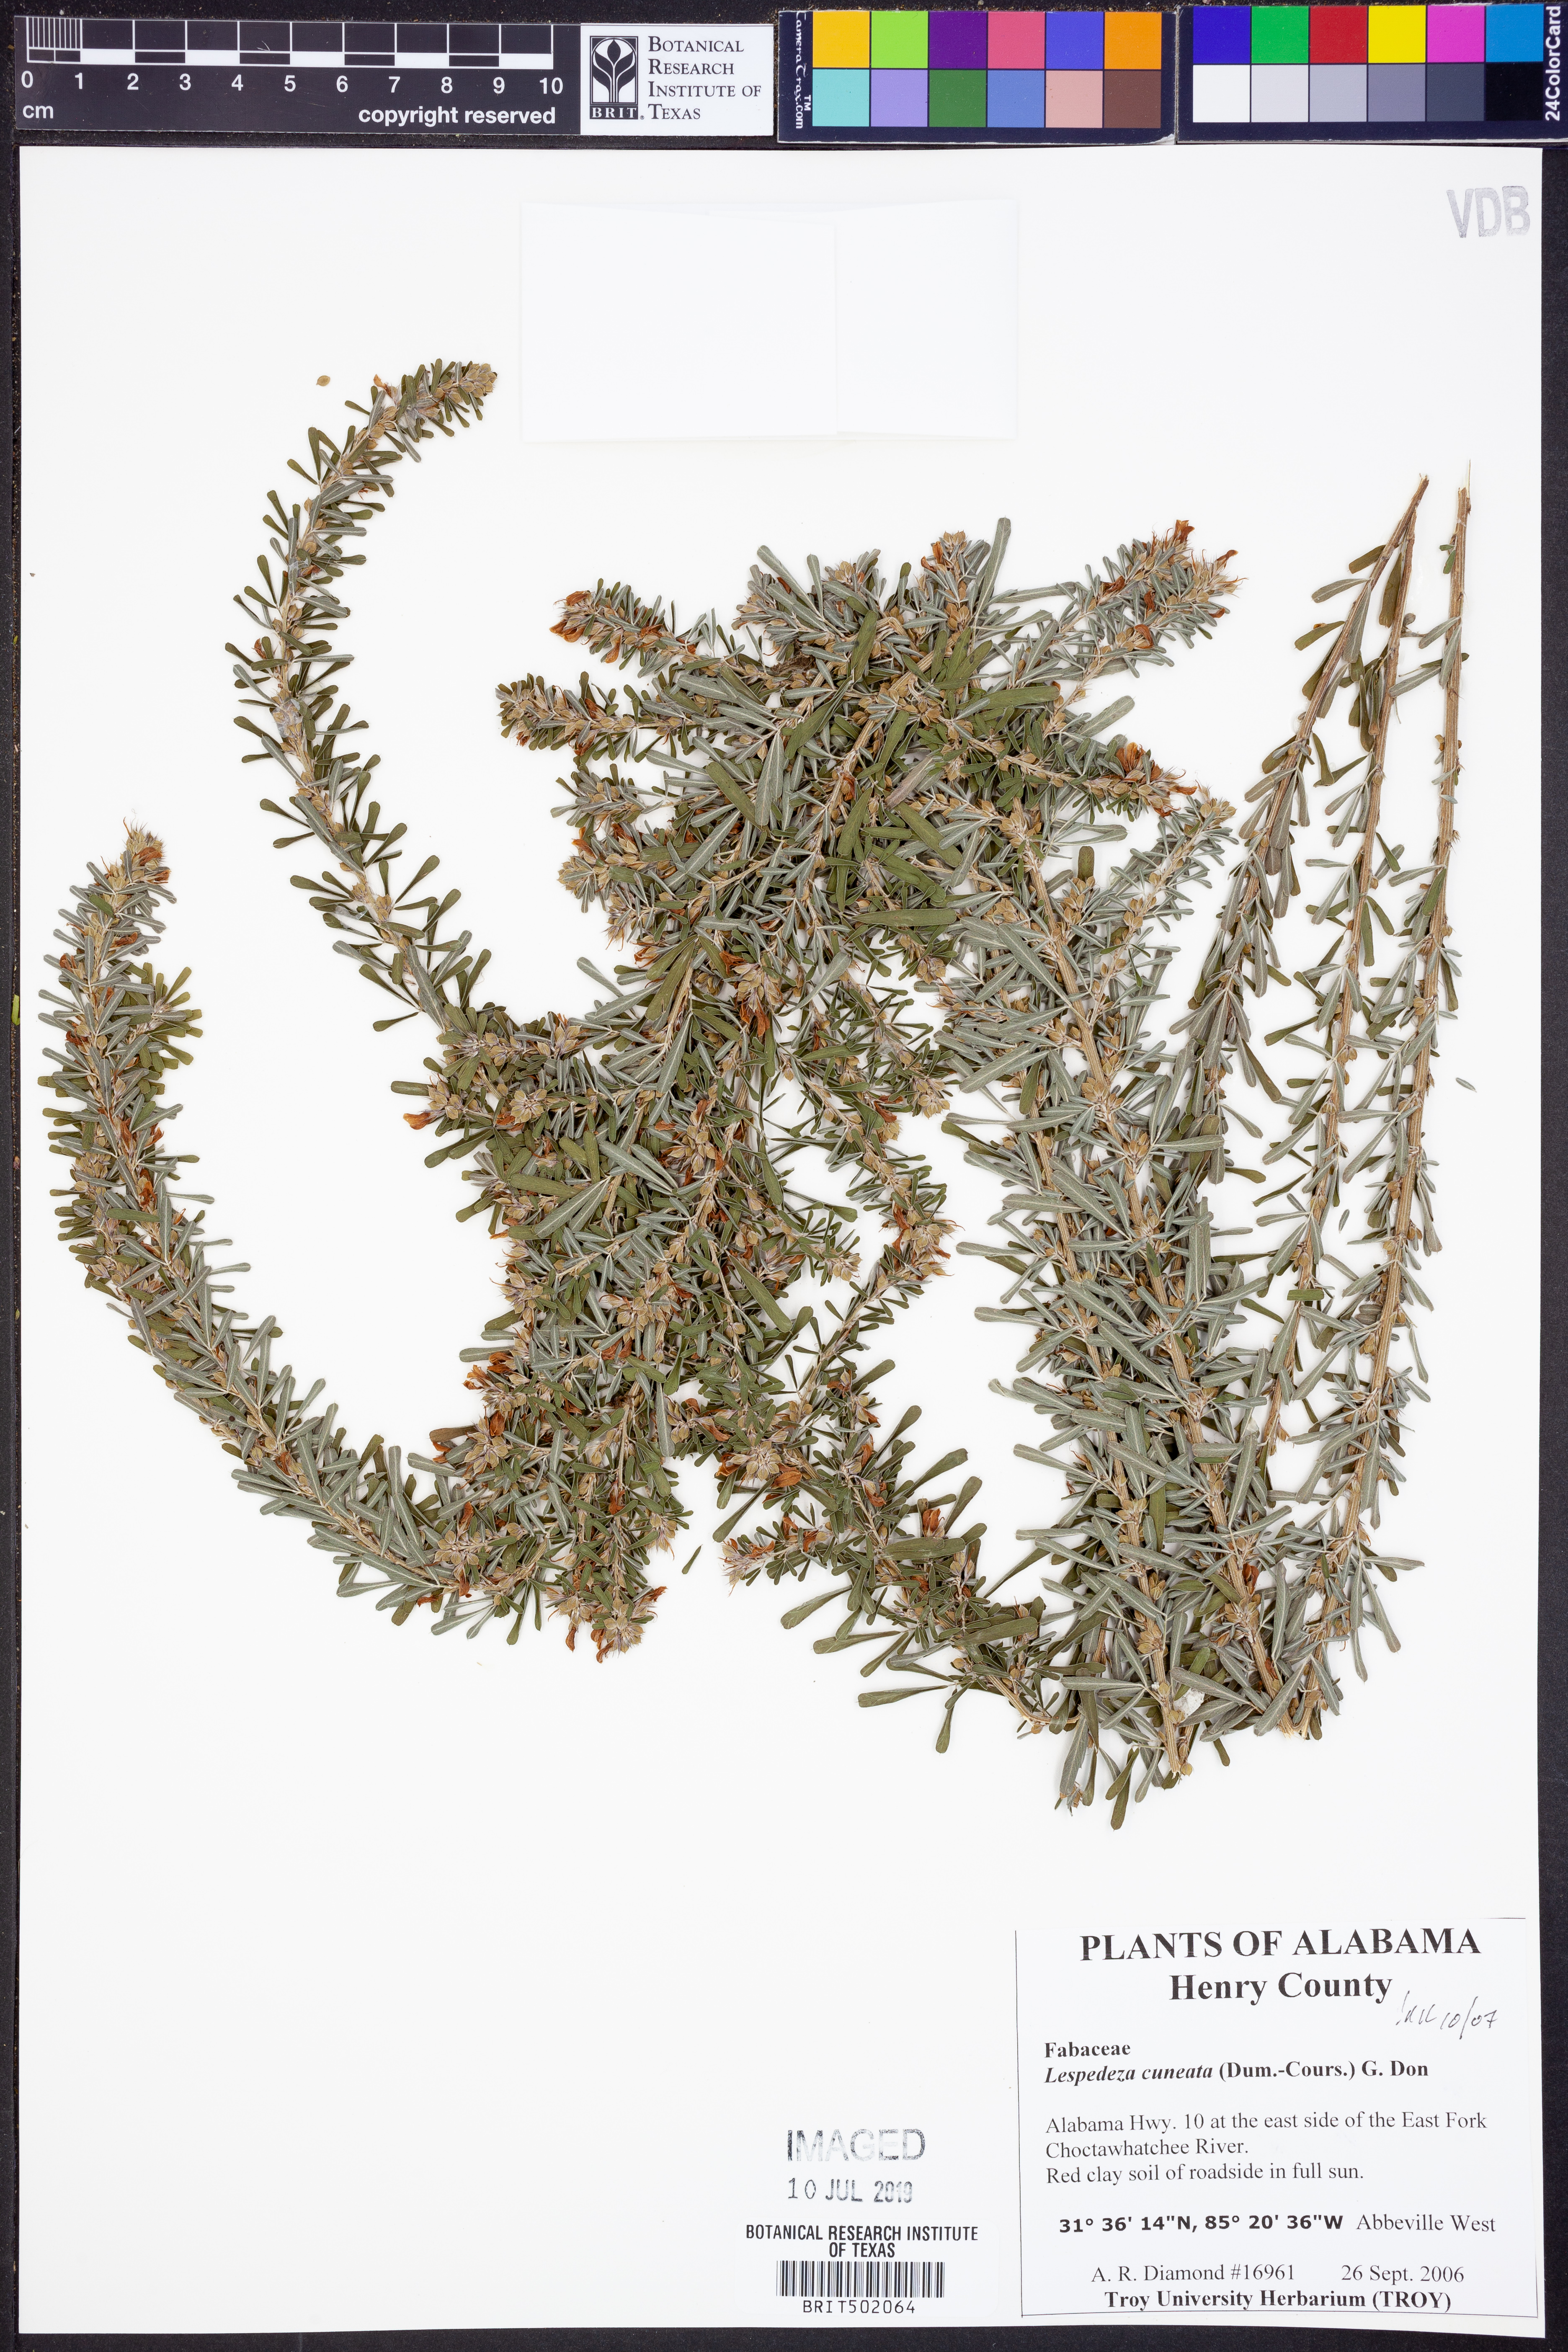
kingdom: Plantae
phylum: Tracheophyta
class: Magnoliopsida
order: Fabales
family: Fabaceae
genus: Lespedeza
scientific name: Lespedeza cuneata
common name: Chinese bush-clover
